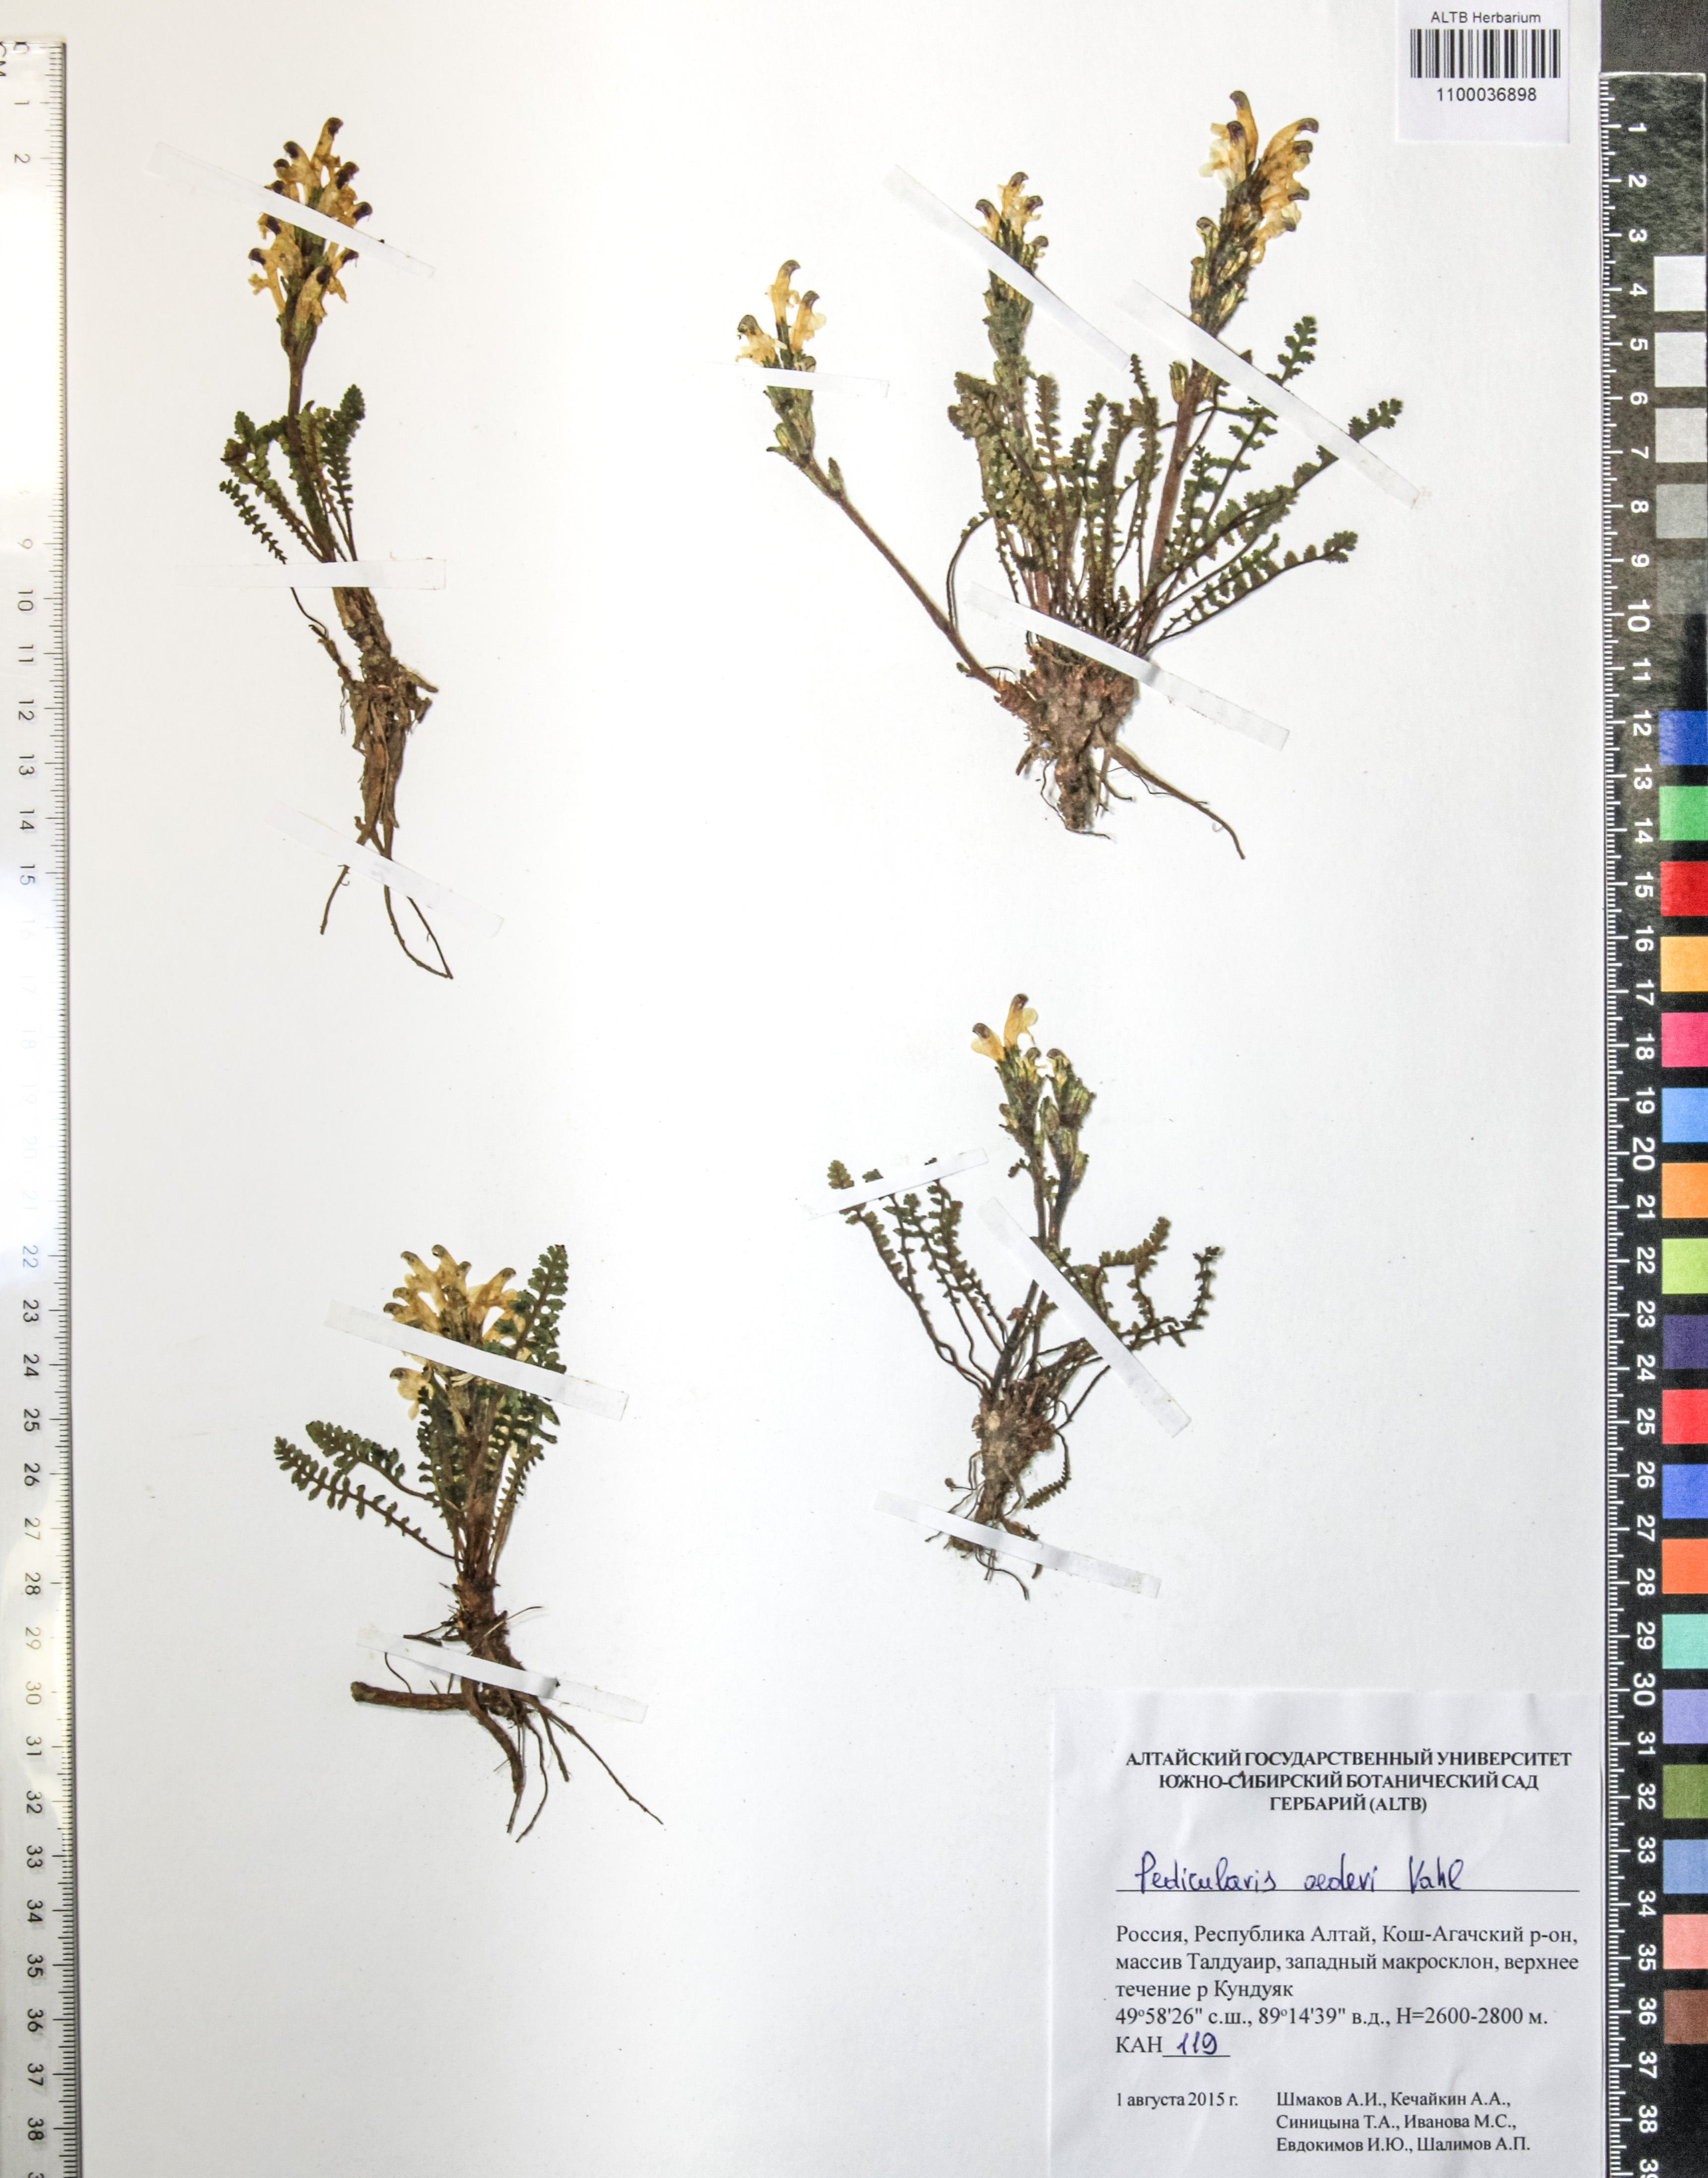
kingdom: Plantae
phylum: Tracheophyta
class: Magnoliopsida
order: Caryophyllales
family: Caryophyllaceae
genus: Silene
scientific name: Silene graminifolia
